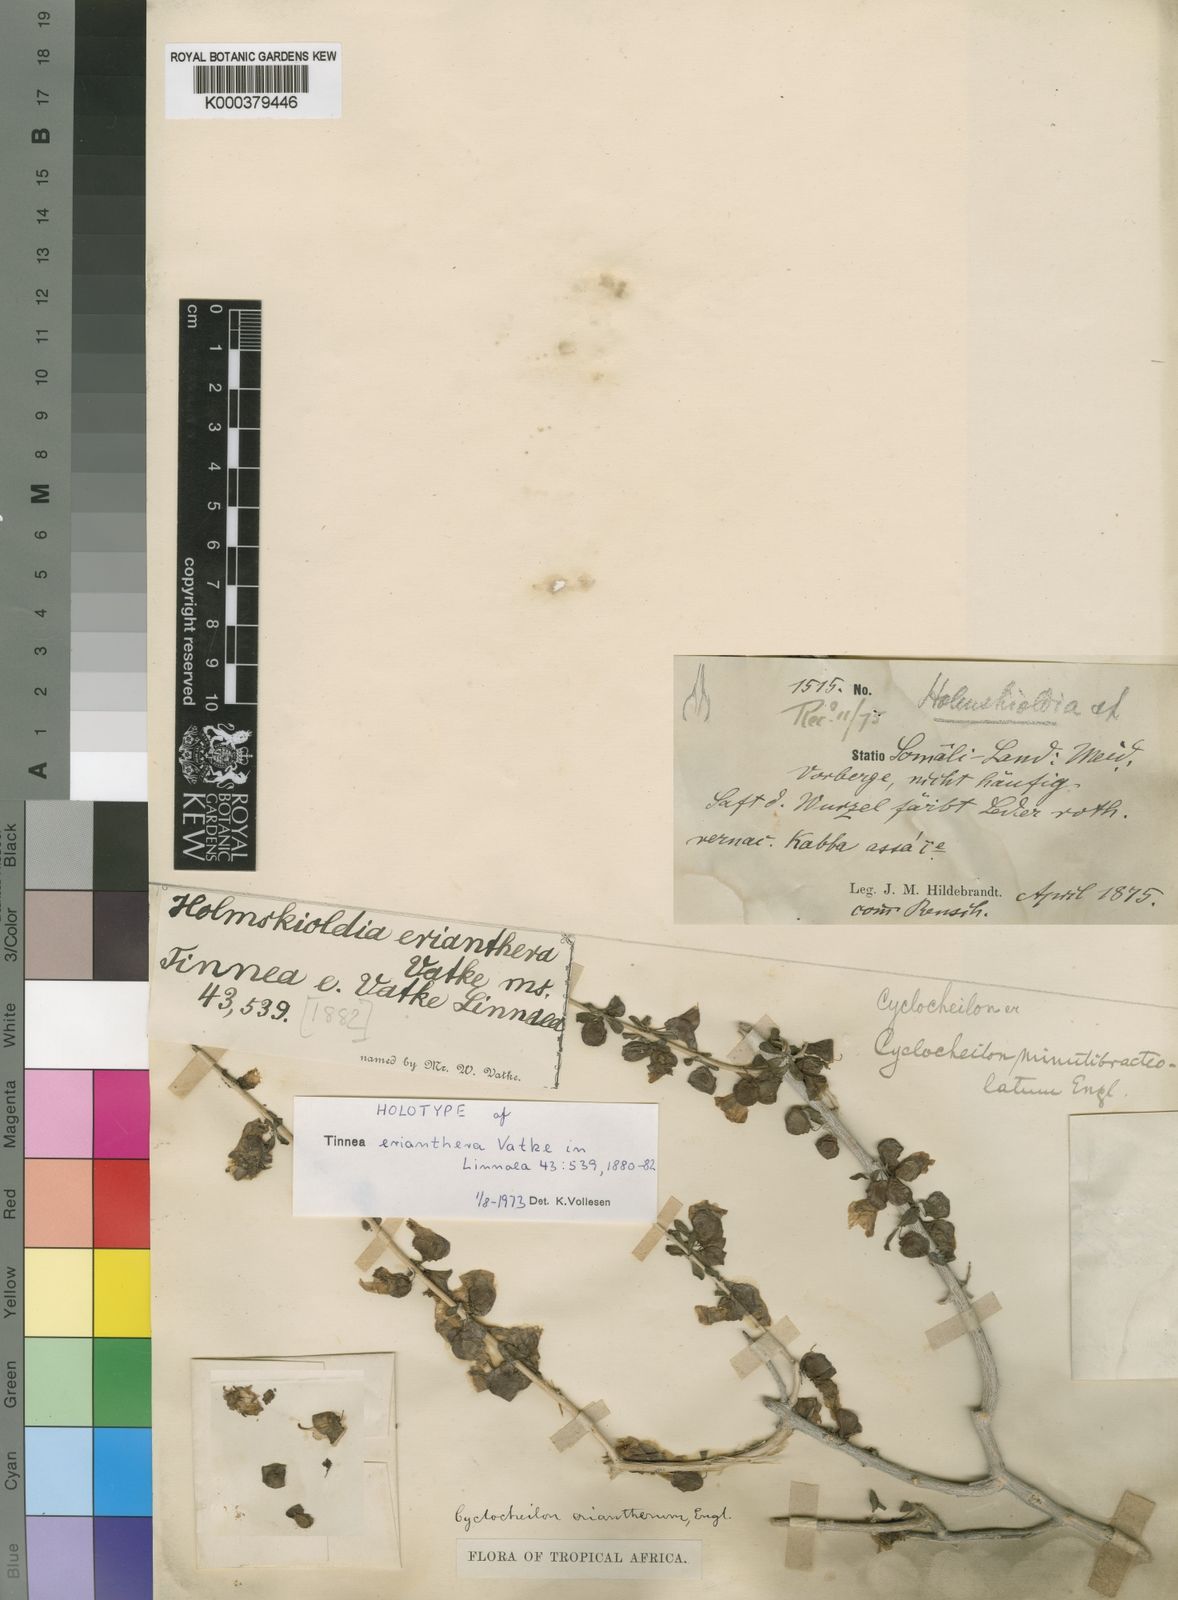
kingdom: Plantae
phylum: Tracheophyta
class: Magnoliopsida
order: Lamiales
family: Orobanchaceae
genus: Asepalum
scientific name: Asepalum eriantherum
